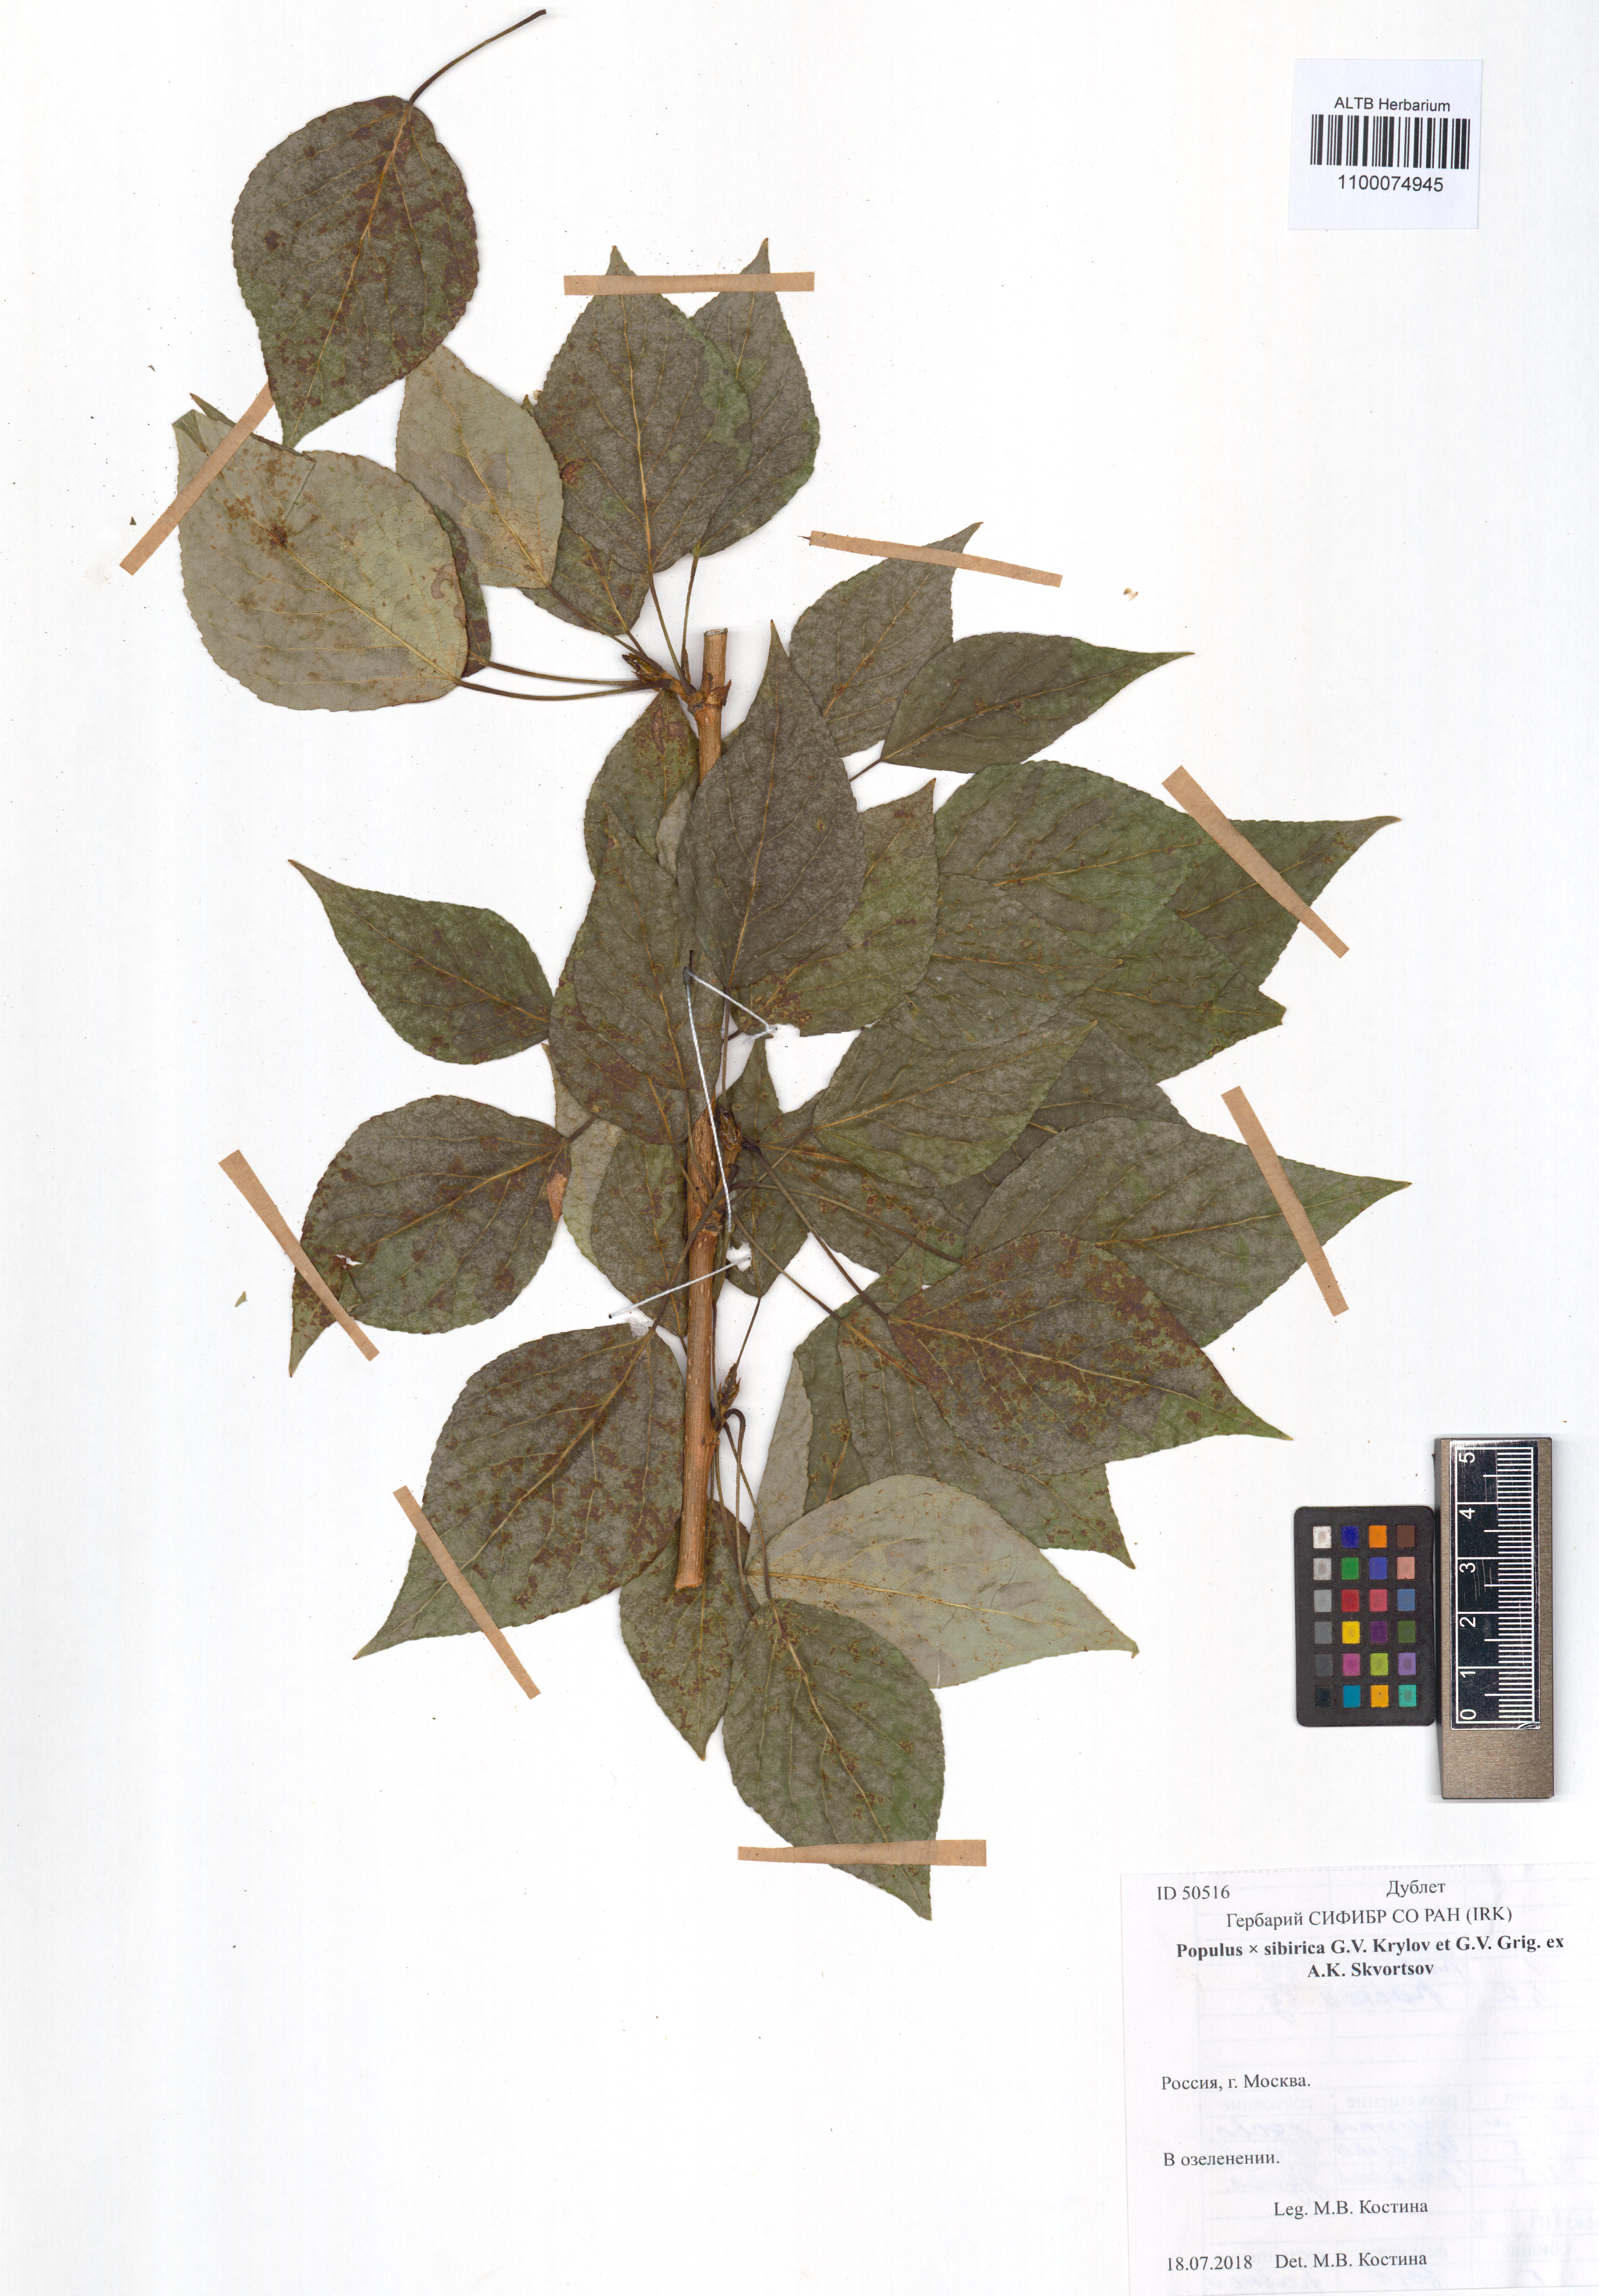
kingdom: Plantae
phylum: Tracheophyta
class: Magnoliopsida
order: Malpighiales
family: Salicaceae
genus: Populus
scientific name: Populus sibirica
